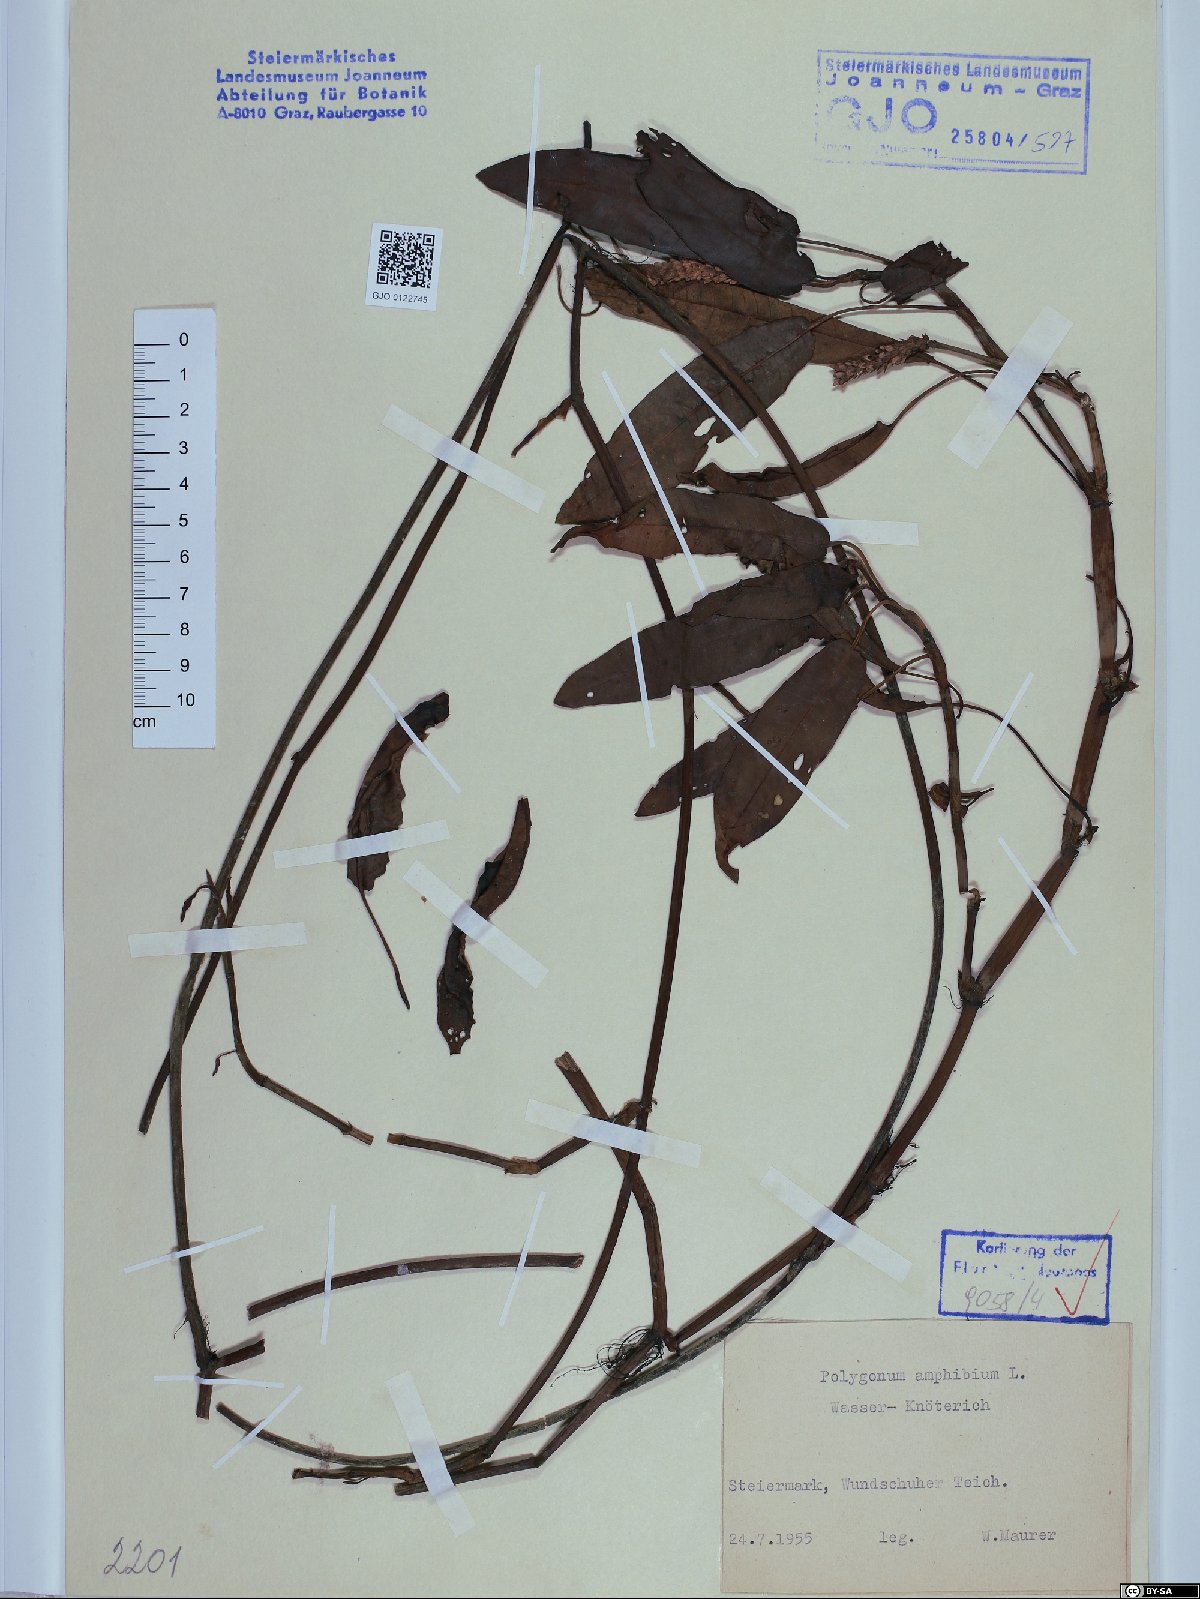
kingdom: Plantae
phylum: Tracheophyta
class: Magnoliopsida
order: Caryophyllales
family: Polygonaceae
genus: Persicaria
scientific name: Persicaria amphibia
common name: Amphibious bistort
